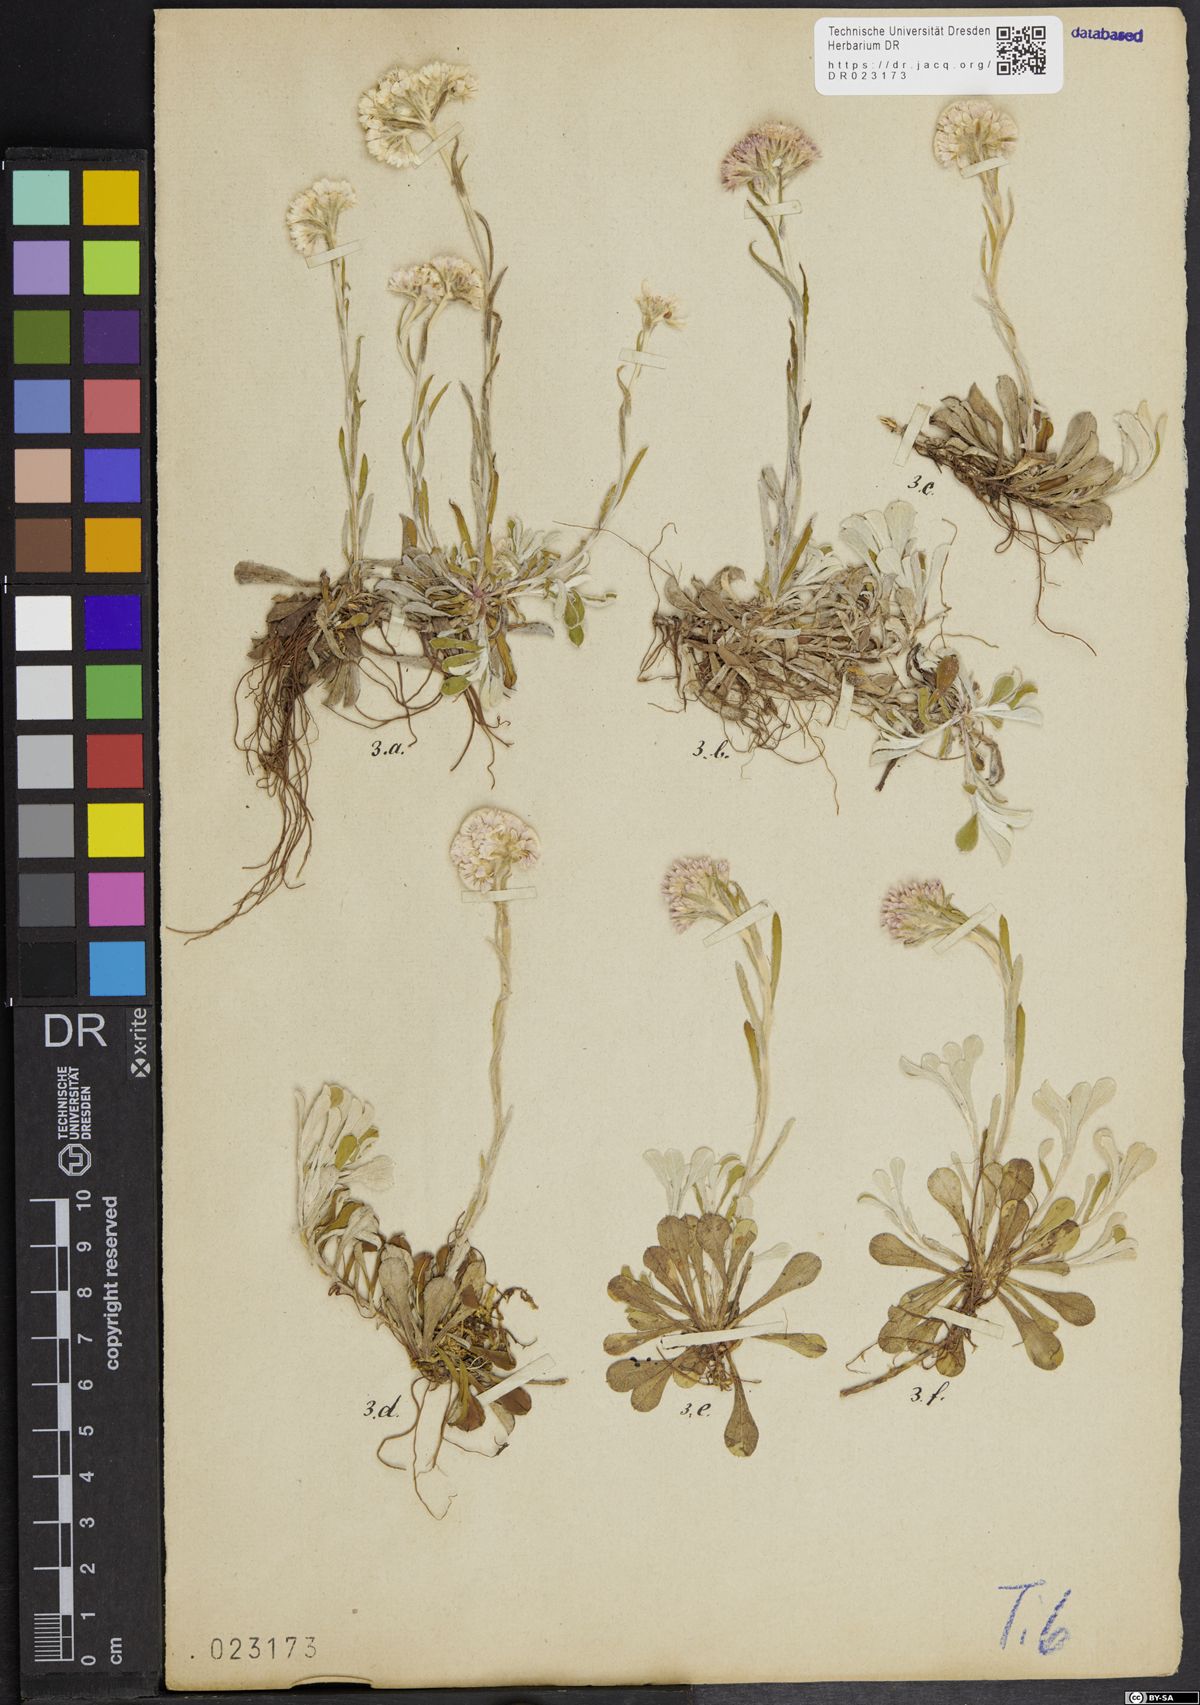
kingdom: Plantae
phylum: Tracheophyta
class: Magnoliopsida
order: Asterales
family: Asteraceae
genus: Antennaria
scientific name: Antennaria dioica
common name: Mountain everlasting
